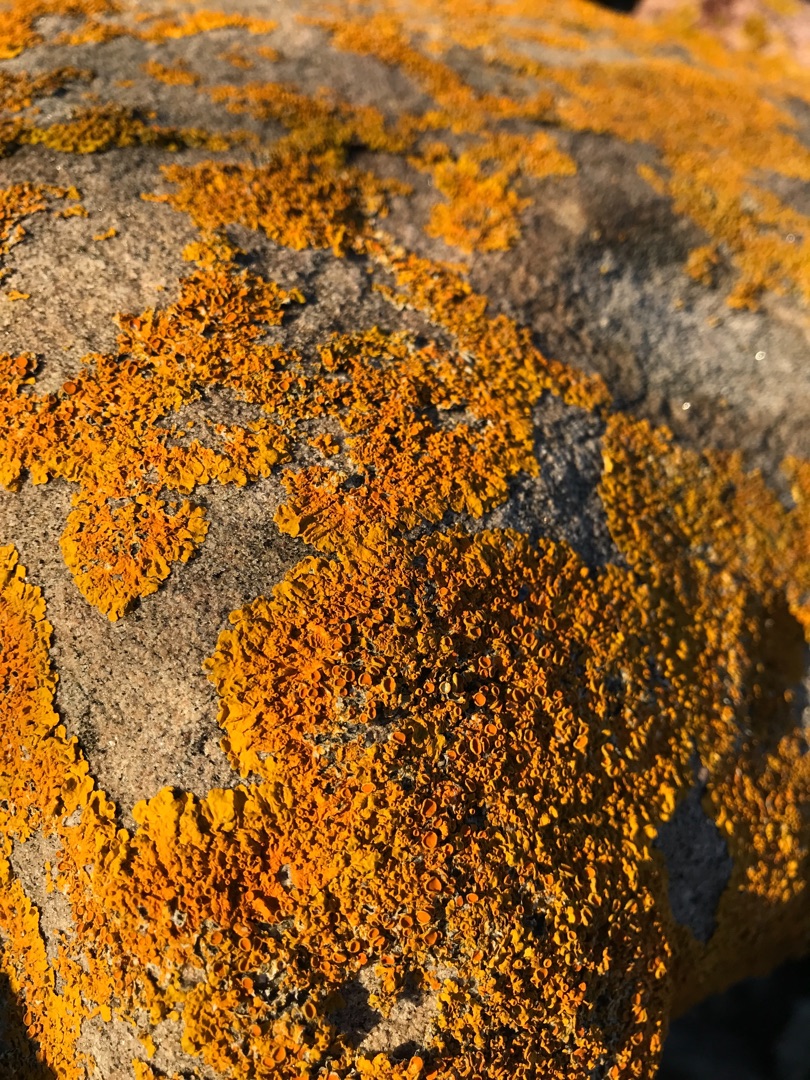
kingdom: Fungi
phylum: Ascomycota
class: Lecanoromycetes
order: Teloschistales
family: Teloschistaceae
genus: Xanthoria
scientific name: Xanthoria parietina
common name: Almindelig væggelav
